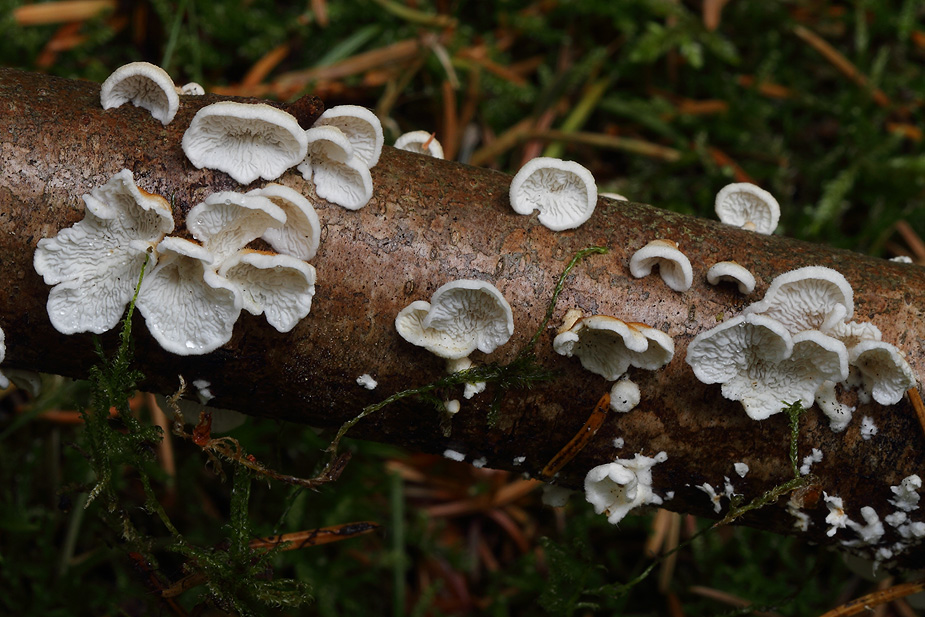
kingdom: Fungi
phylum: Basidiomycota
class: Agaricomycetes
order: Amylocorticiales
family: Amylocorticiaceae
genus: Plicaturopsis
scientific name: Plicaturopsis crispa
